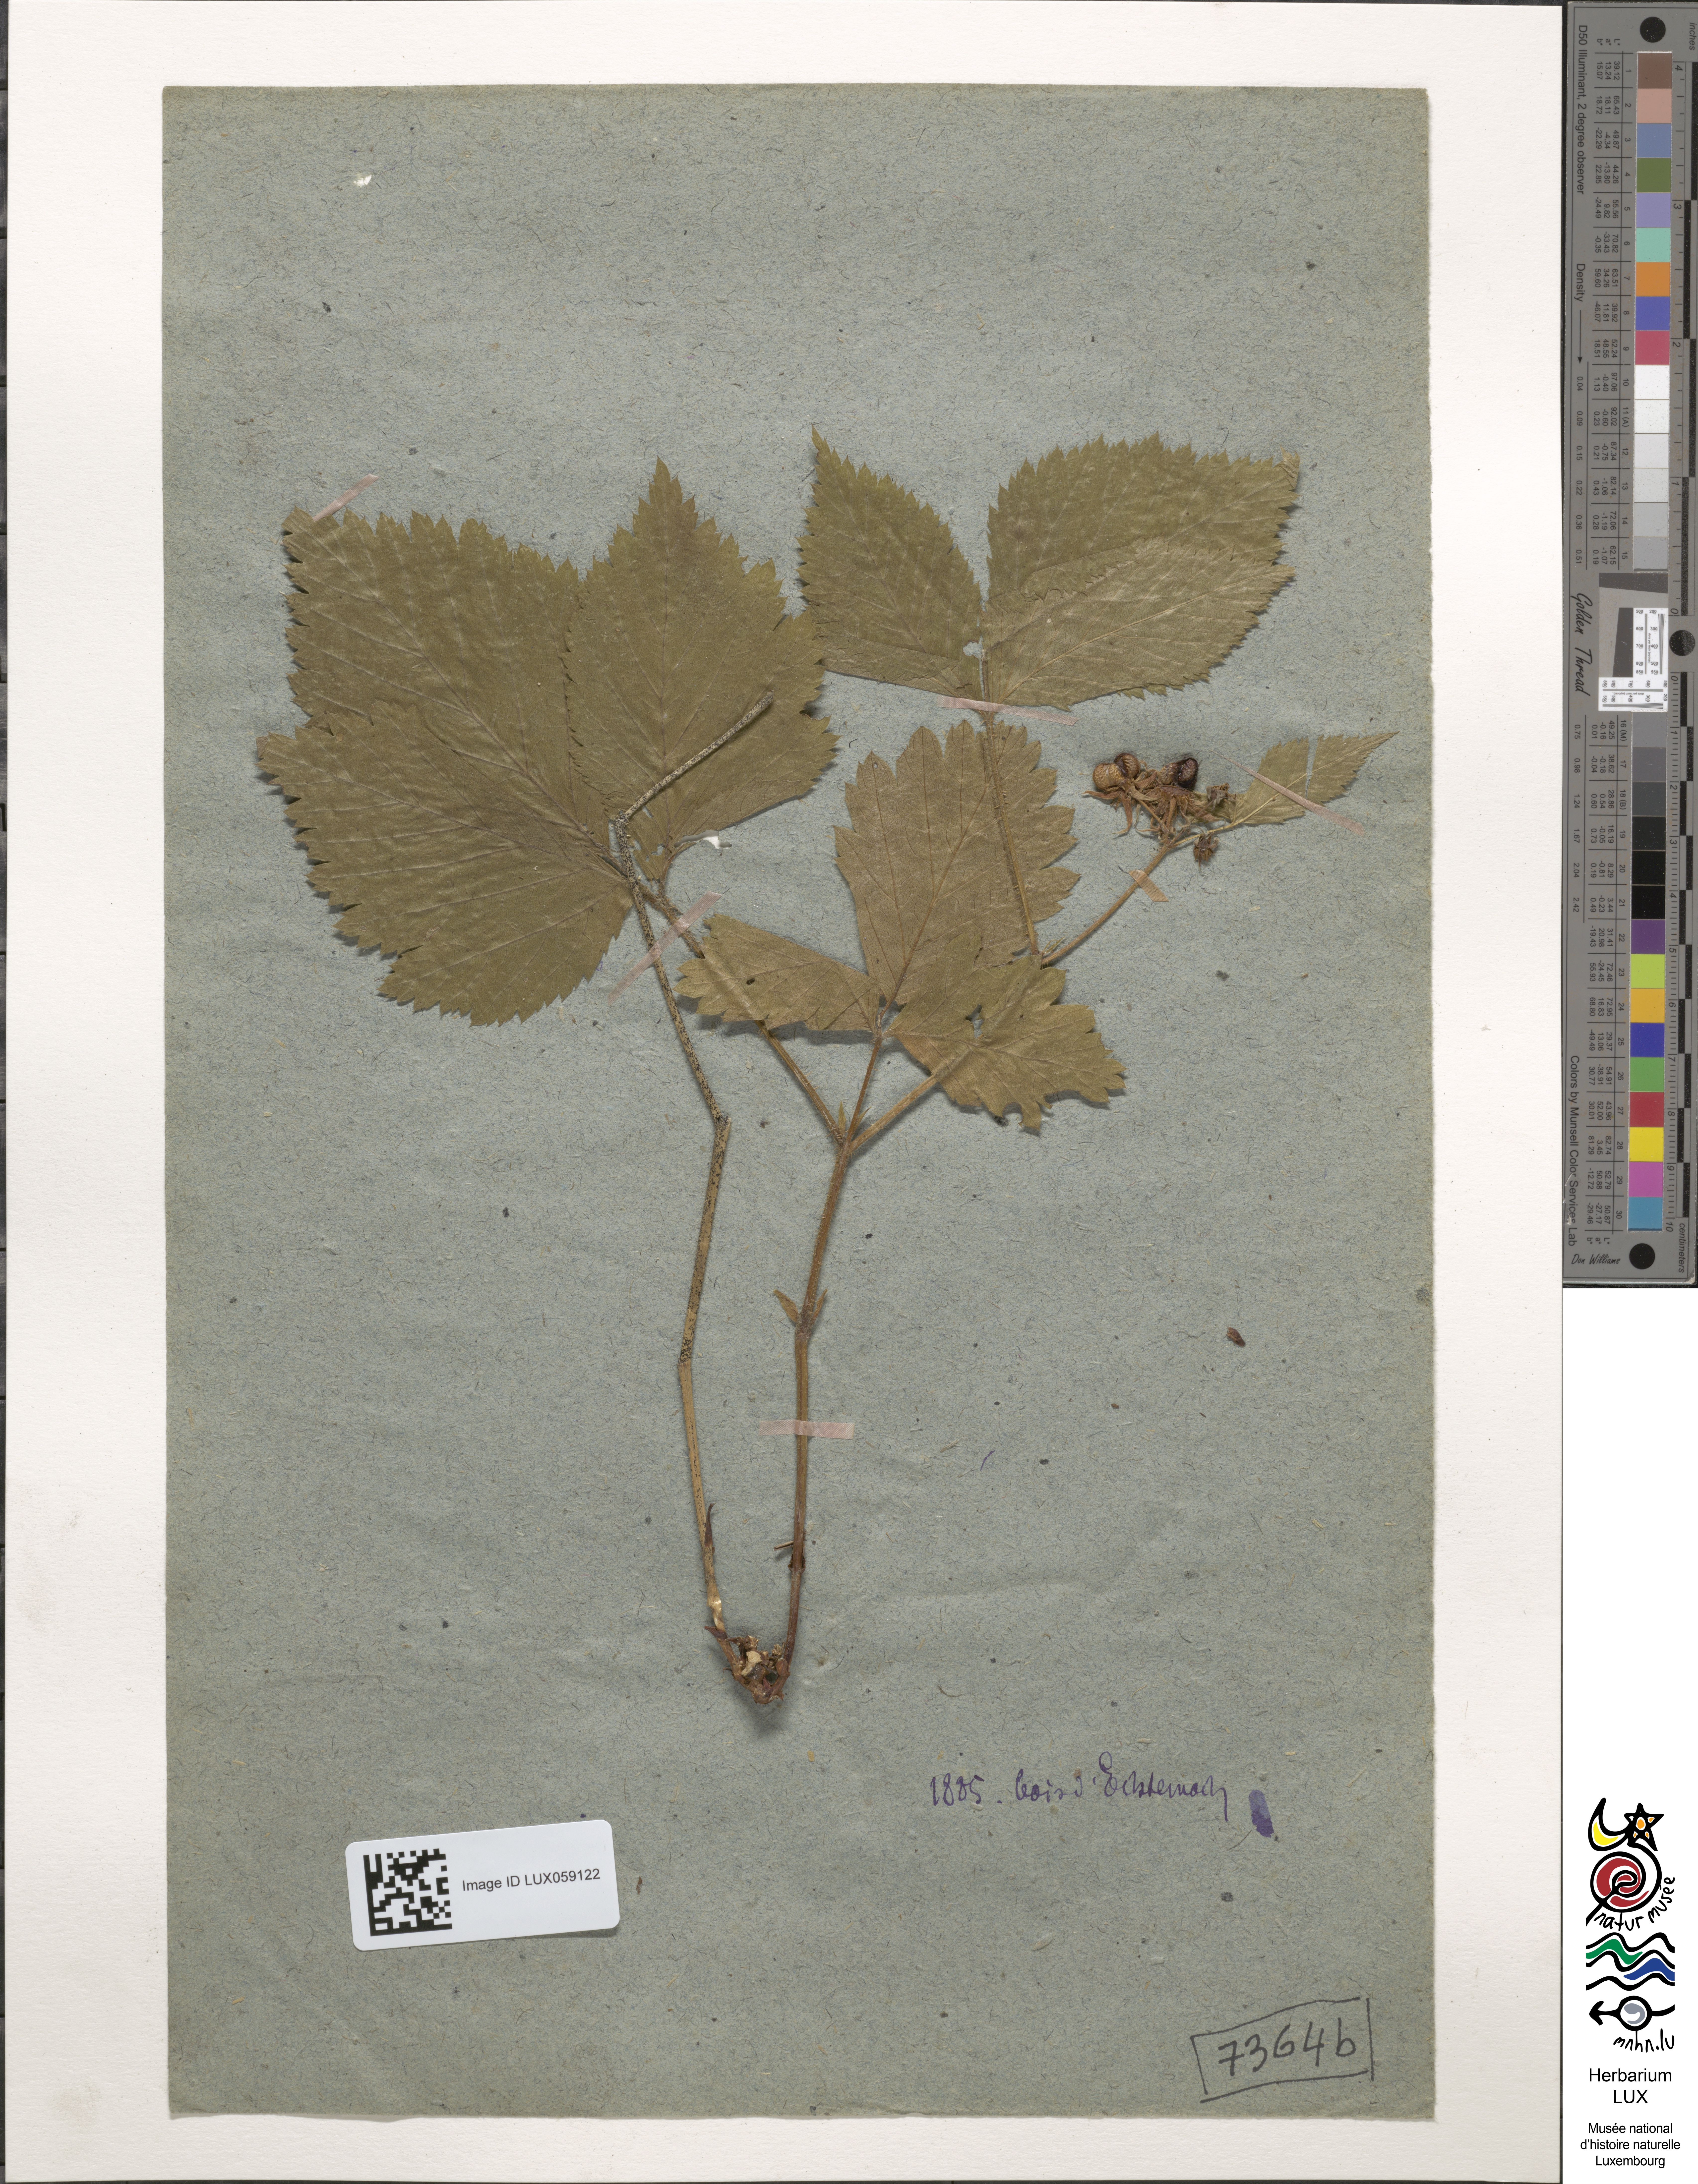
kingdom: Plantae
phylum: Tracheophyta
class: Magnoliopsida
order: Rosales
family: Rosaceae
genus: Rubus
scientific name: Rubus saxatilis
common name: Stone bramble
